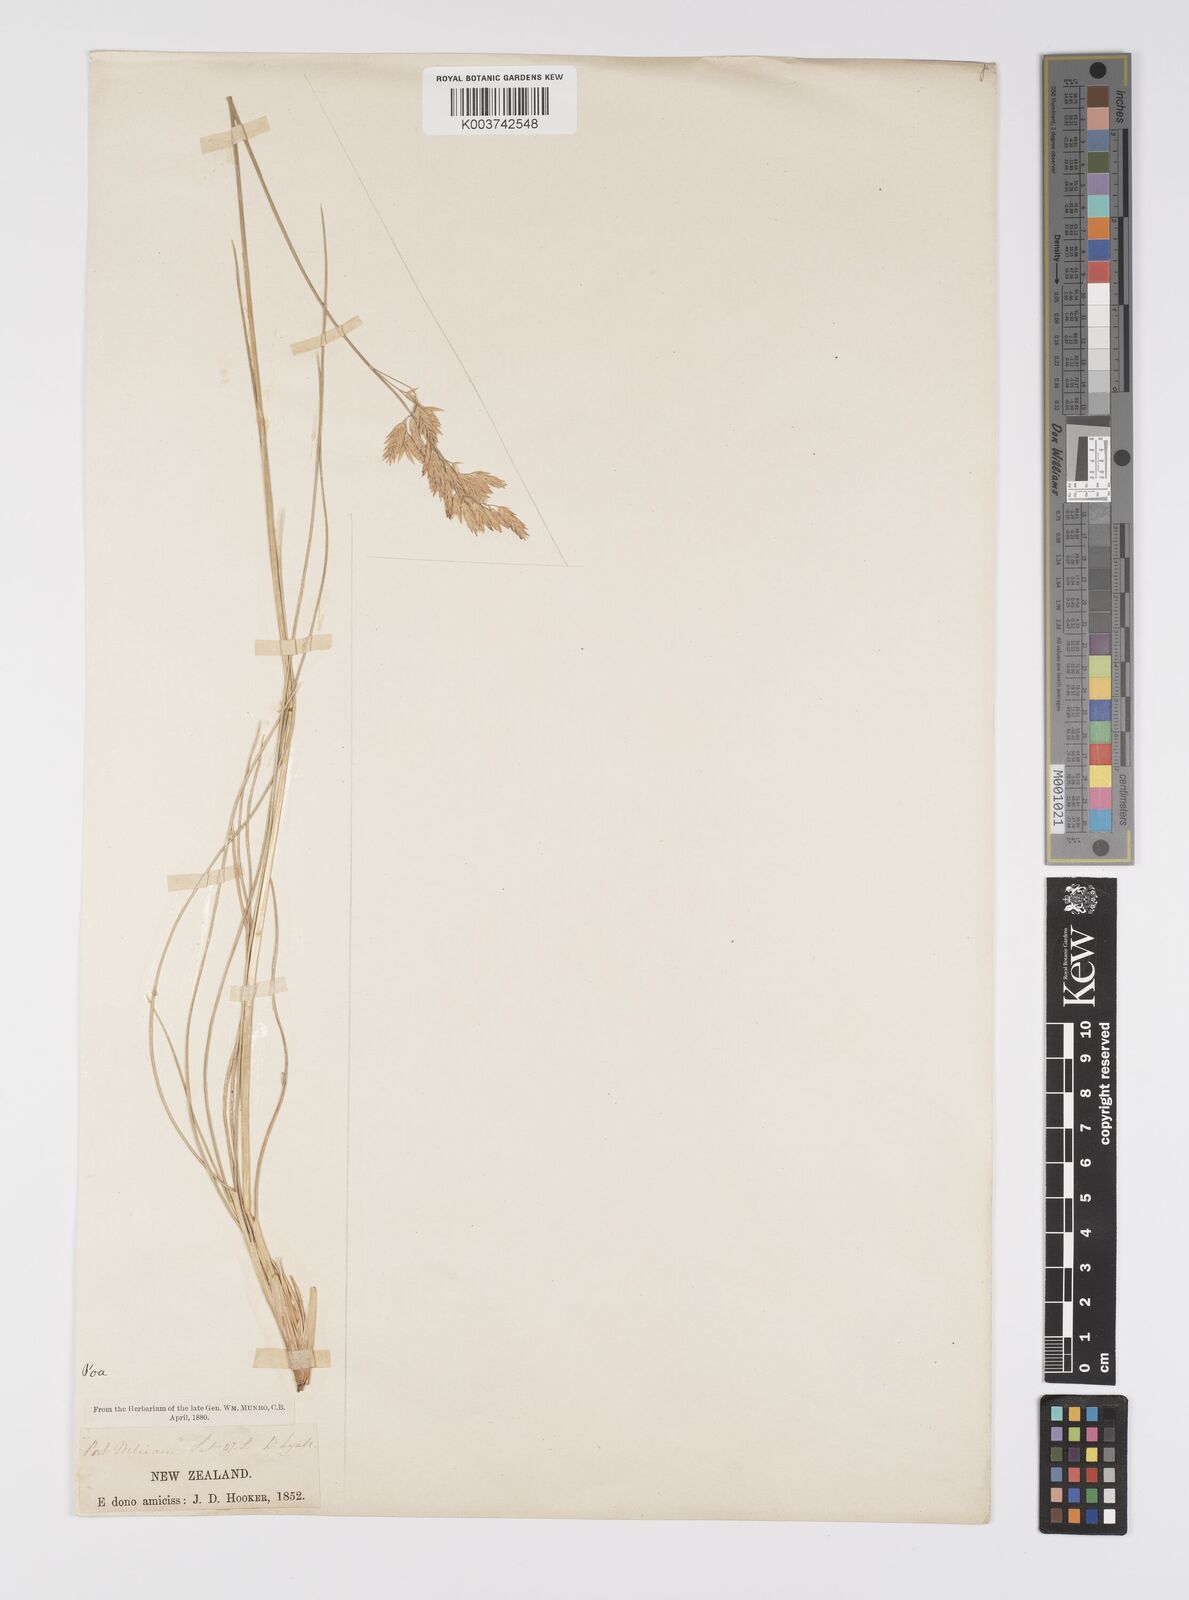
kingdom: Plantae
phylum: Tracheophyta
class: Liliopsida
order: Poales
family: Poaceae
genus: Poa
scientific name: Poa astonii
